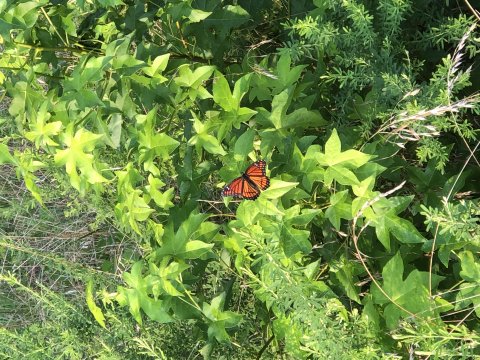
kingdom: Animalia
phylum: Arthropoda
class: Insecta
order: Lepidoptera
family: Nymphalidae
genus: Limenitis
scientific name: Limenitis archippus
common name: Viceroy
